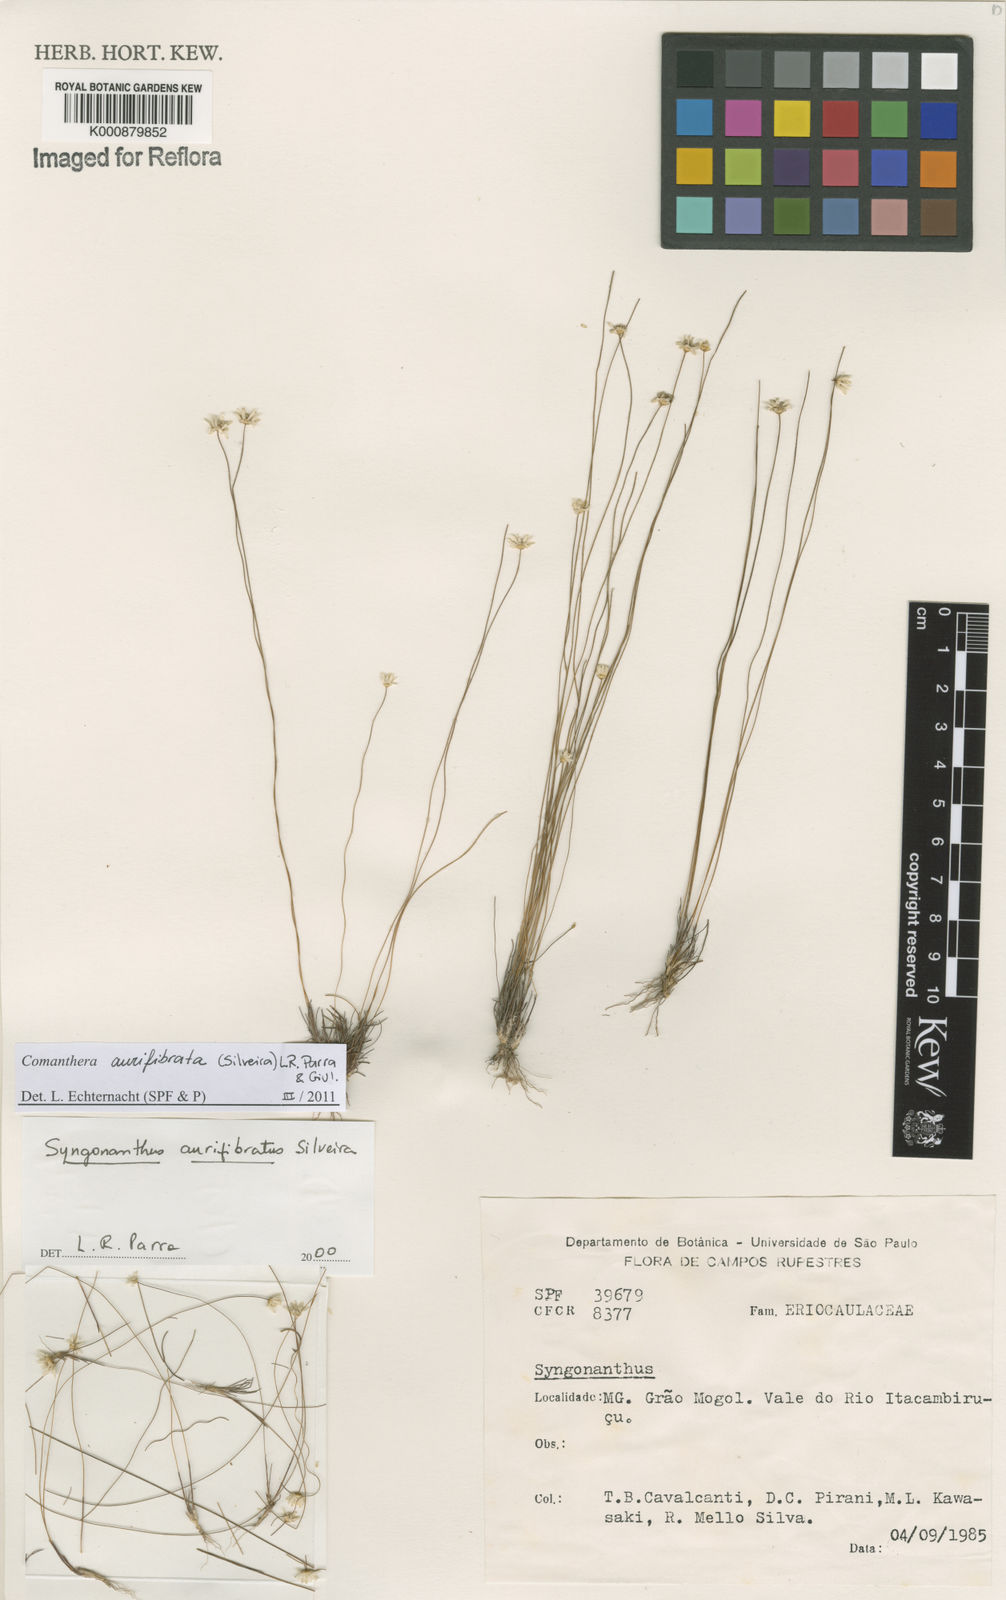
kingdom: Plantae
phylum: Tracheophyta
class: Liliopsida
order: Poales
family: Eriocaulaceae
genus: Comanthera
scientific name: Comanthera aurifibrata
